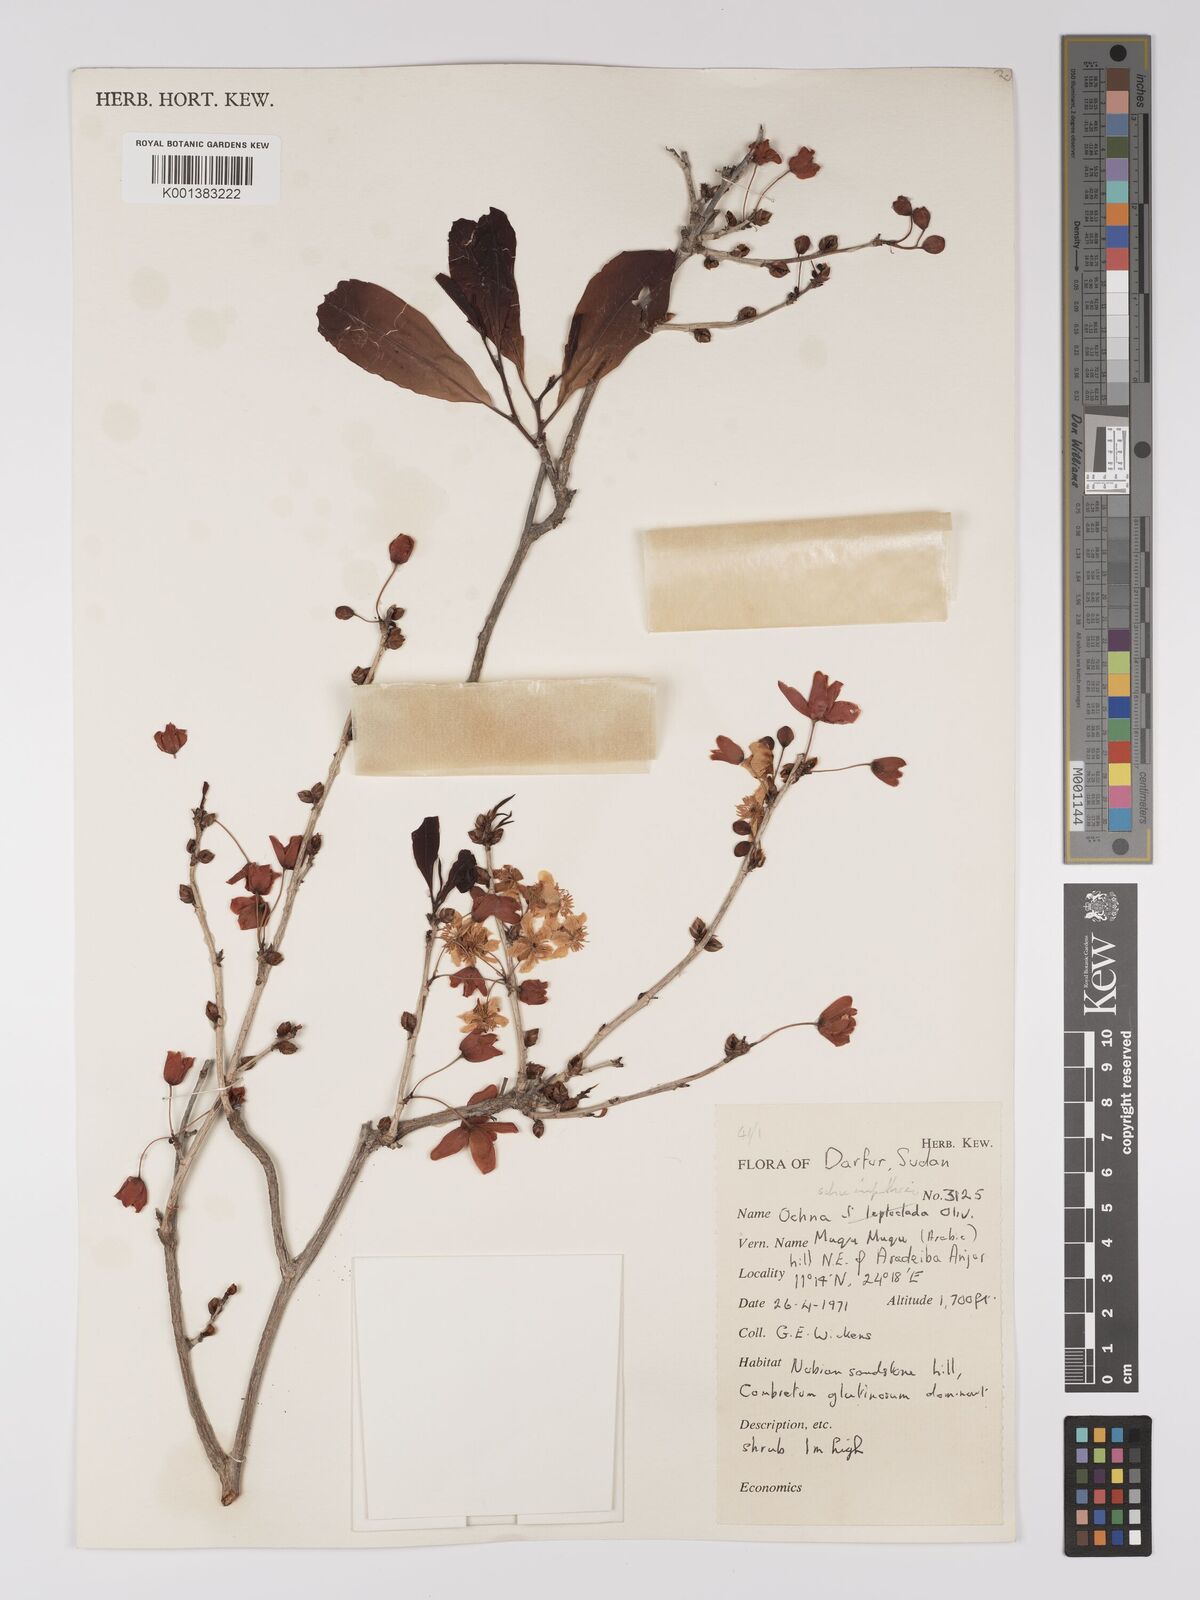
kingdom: Plantae
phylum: Tracheophyta
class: Magnoliopsida
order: Malpighiales
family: Ochnaceae
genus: Ochna
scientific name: Ochna schweinfurthiana
